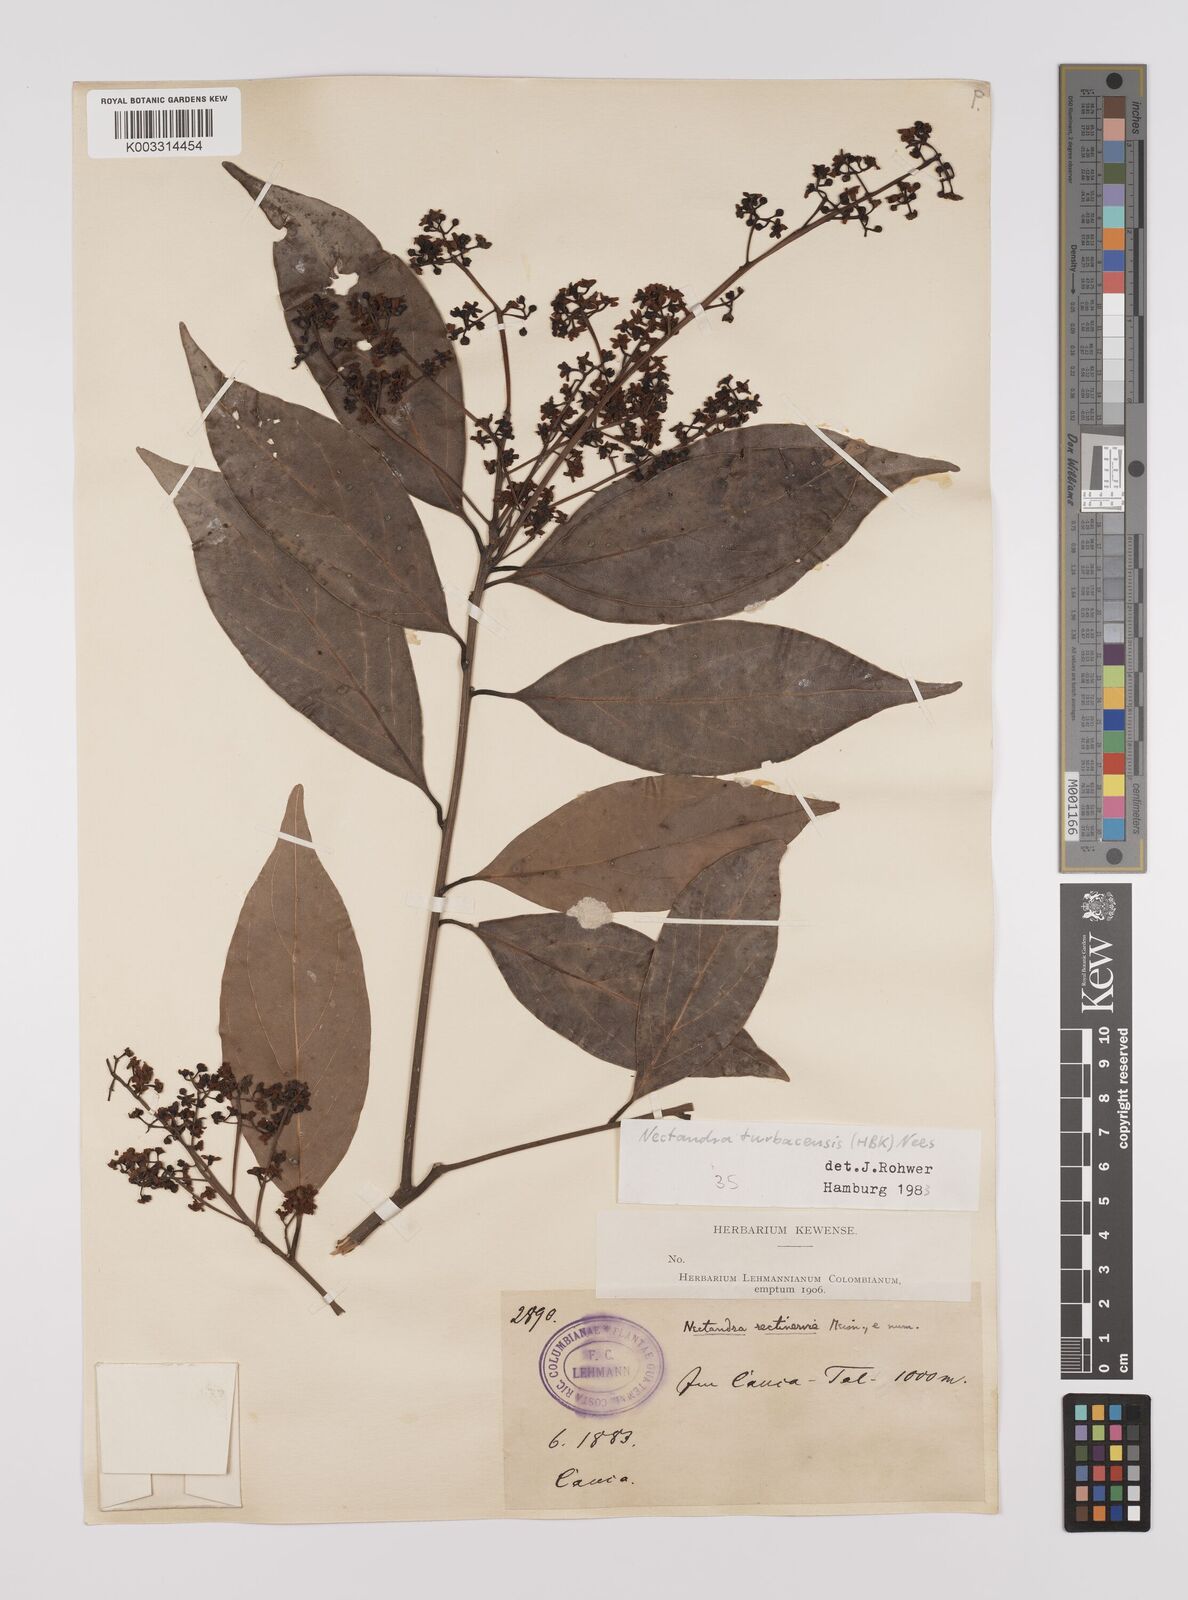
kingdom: Plantae
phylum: Tracheophyta
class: Magnoliopsida
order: Laurales
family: Lauraceae
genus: Nectandra
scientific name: Nectandra turbacensis
